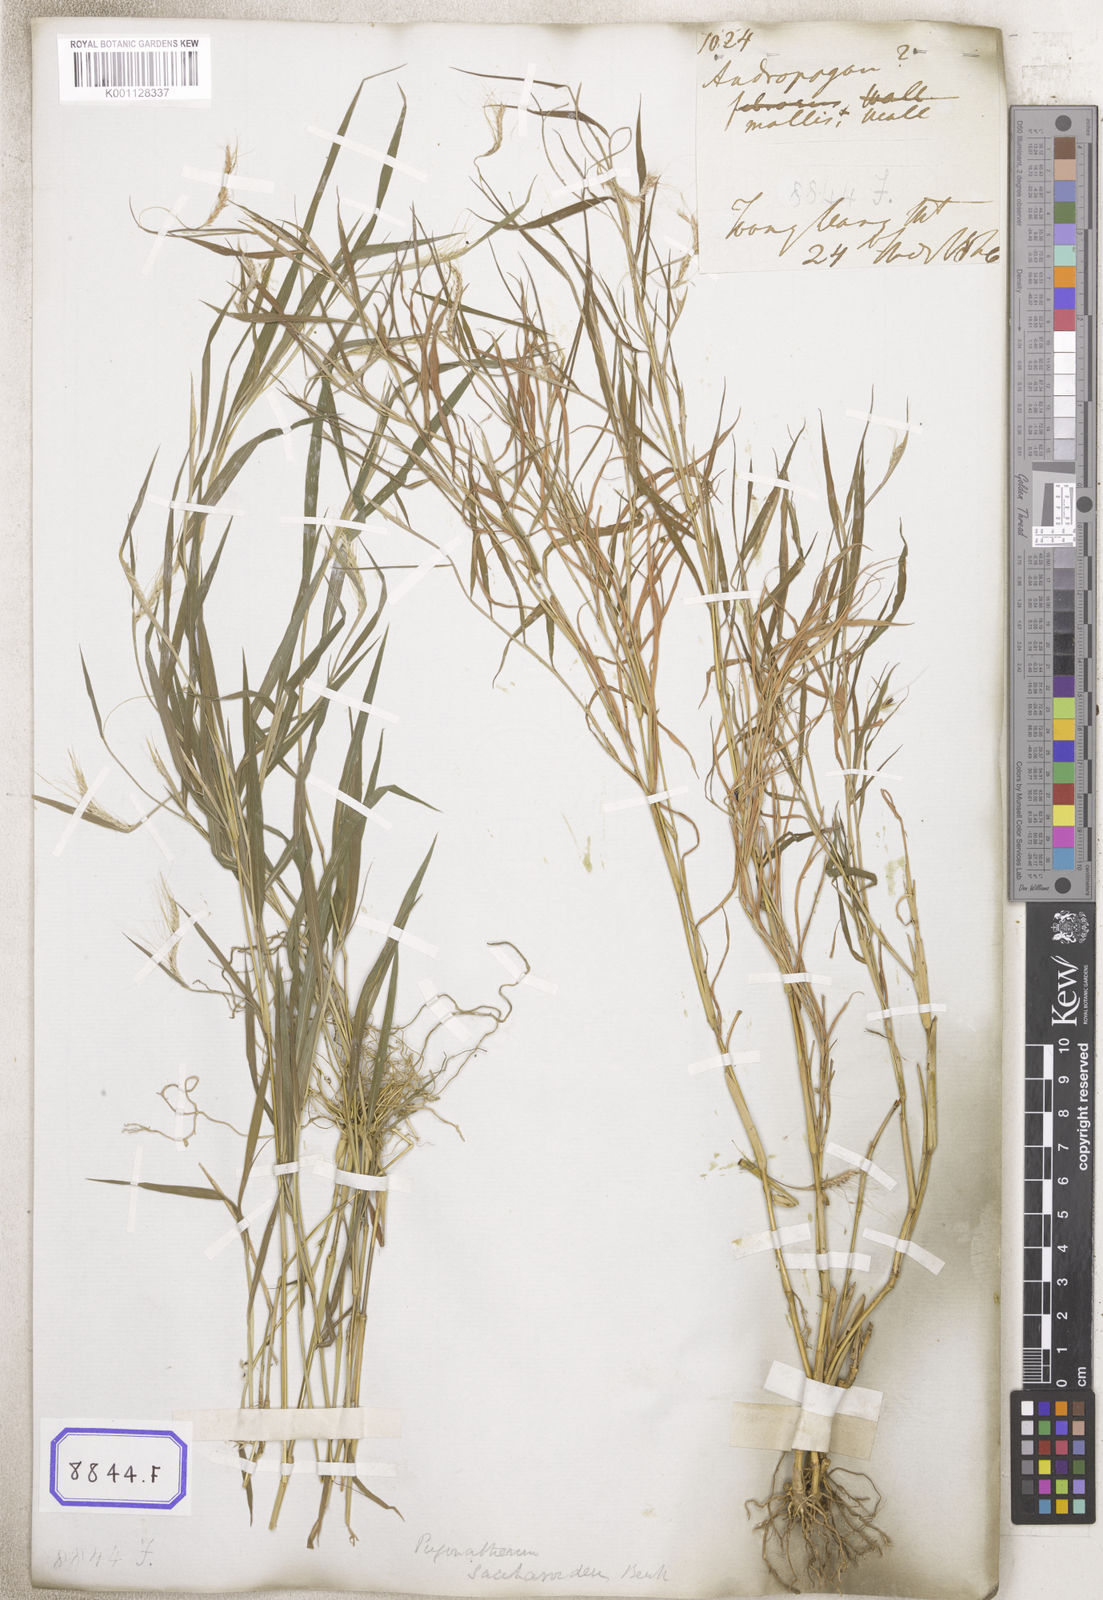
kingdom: Plantae
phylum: Tracheophyta
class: Liliopsida
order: Poales
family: Poaceae
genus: Pogonatherum
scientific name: Pogonatherum paniceum
